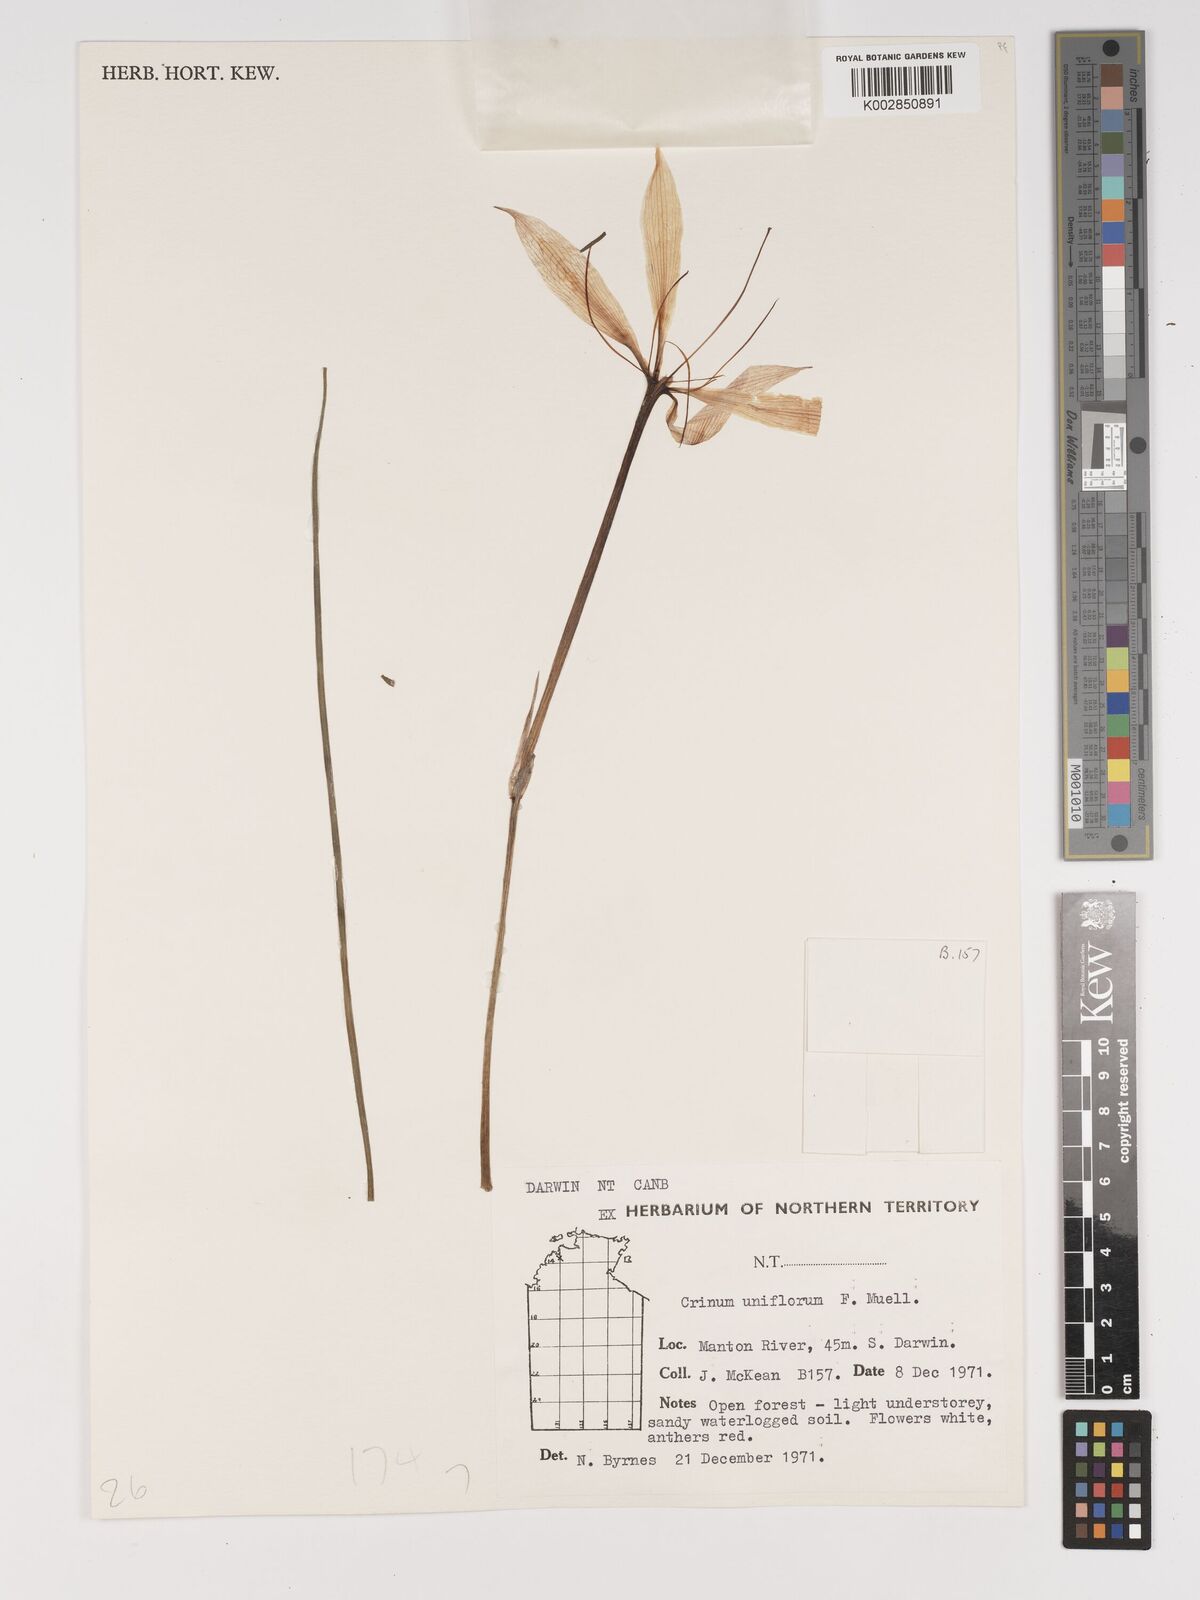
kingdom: Plantae
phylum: Tracheophyta
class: Liliopsida
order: Asparagales
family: Amaryllidaceae
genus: Crinum
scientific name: Crinum uniflorum
